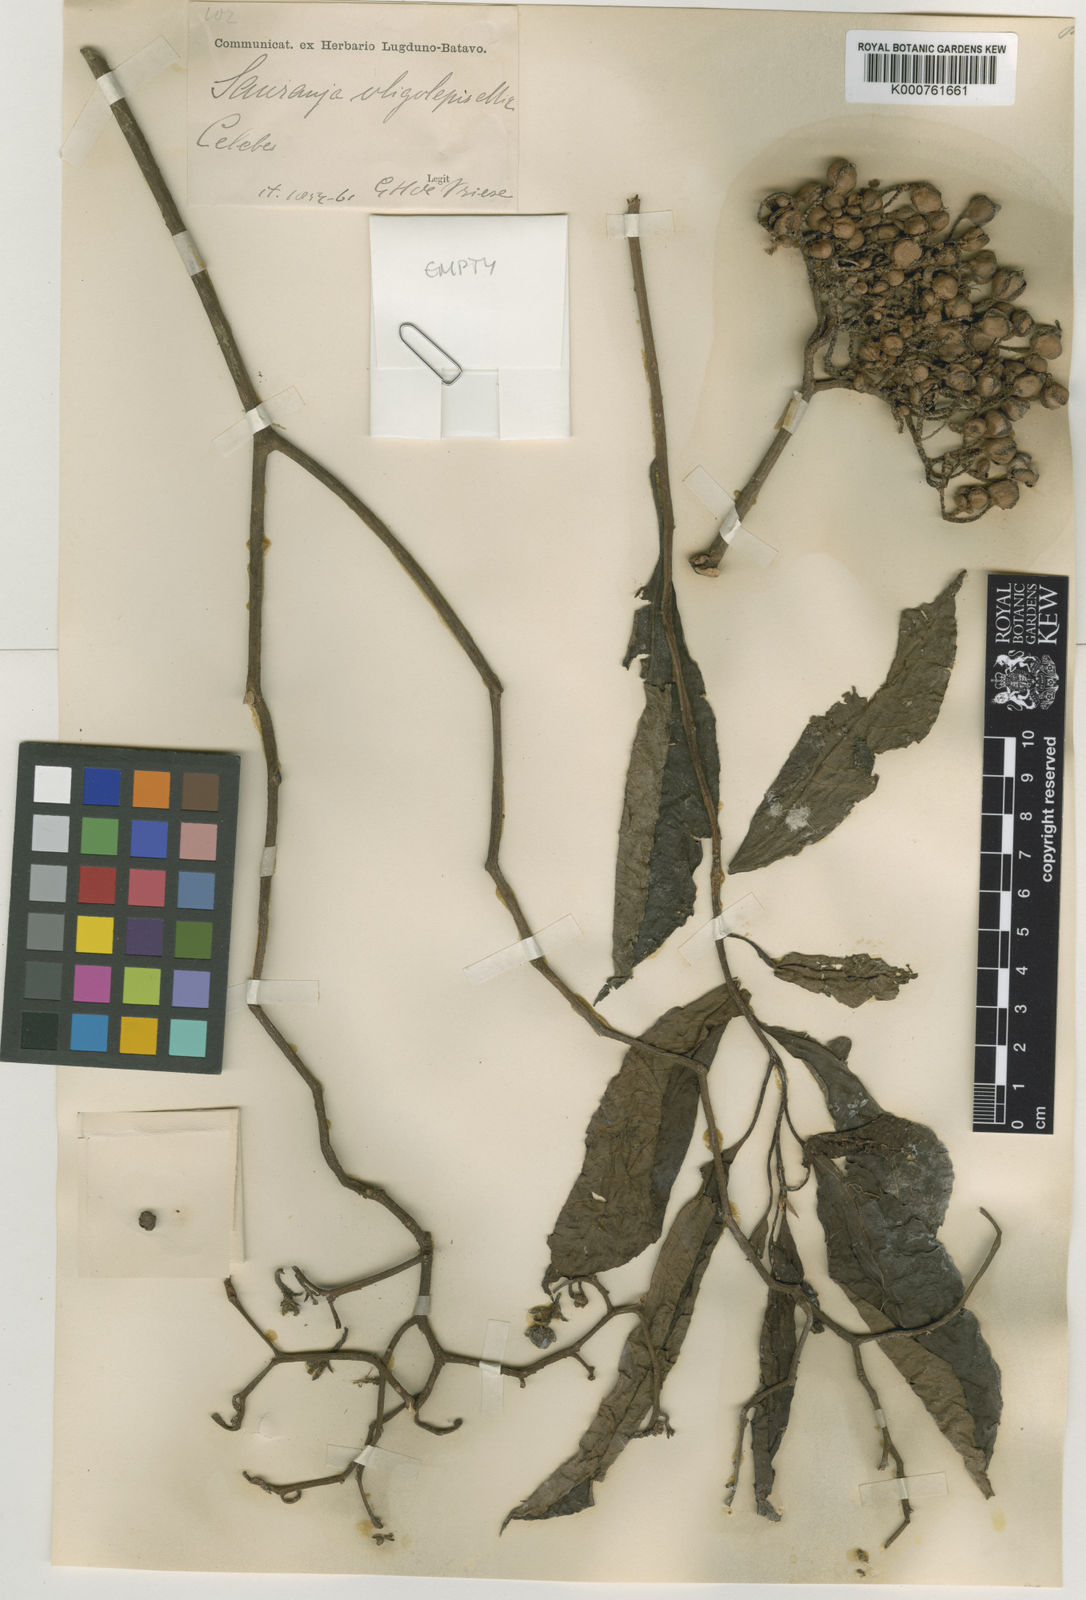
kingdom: Plantae
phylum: Tracheophyta
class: Magnoliopsida
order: Ericales
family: Actinidiaceae
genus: Saurauia
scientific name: Saurauia oligolepis
